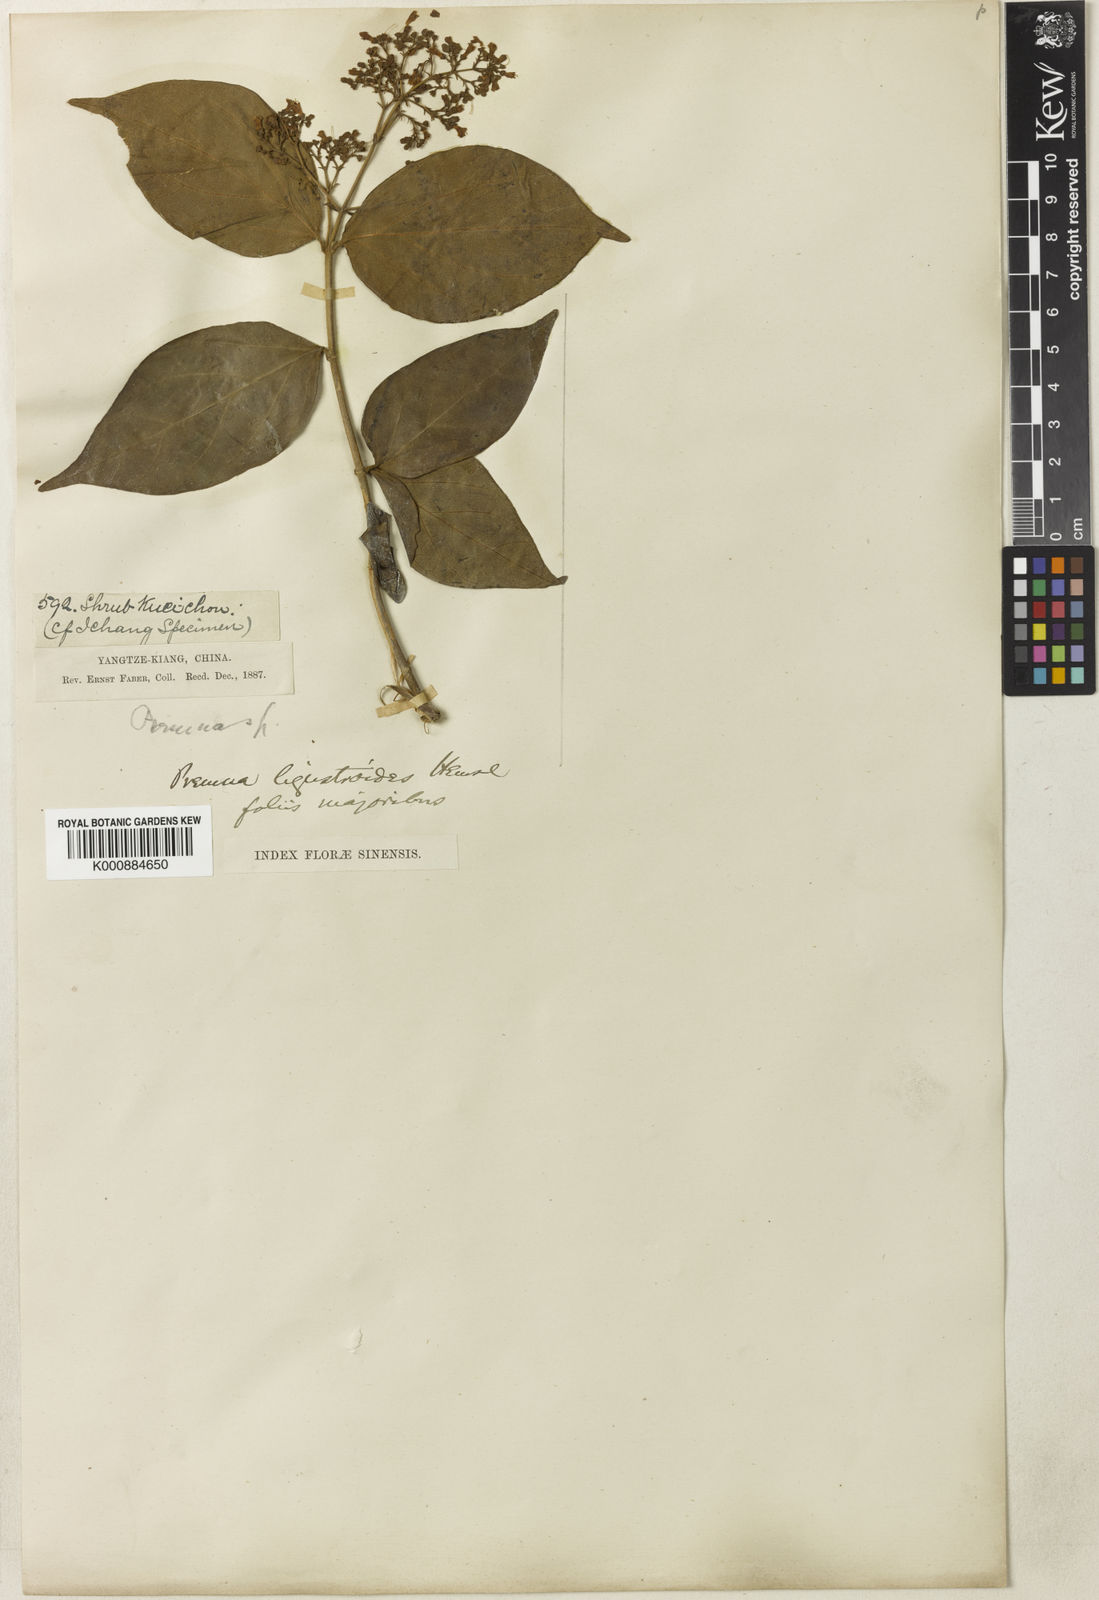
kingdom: Plantae
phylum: Tracheophyta
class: Magnoliopsida
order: Lamiales
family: Lamiaceae
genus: Premna
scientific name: Premna ligustroides
